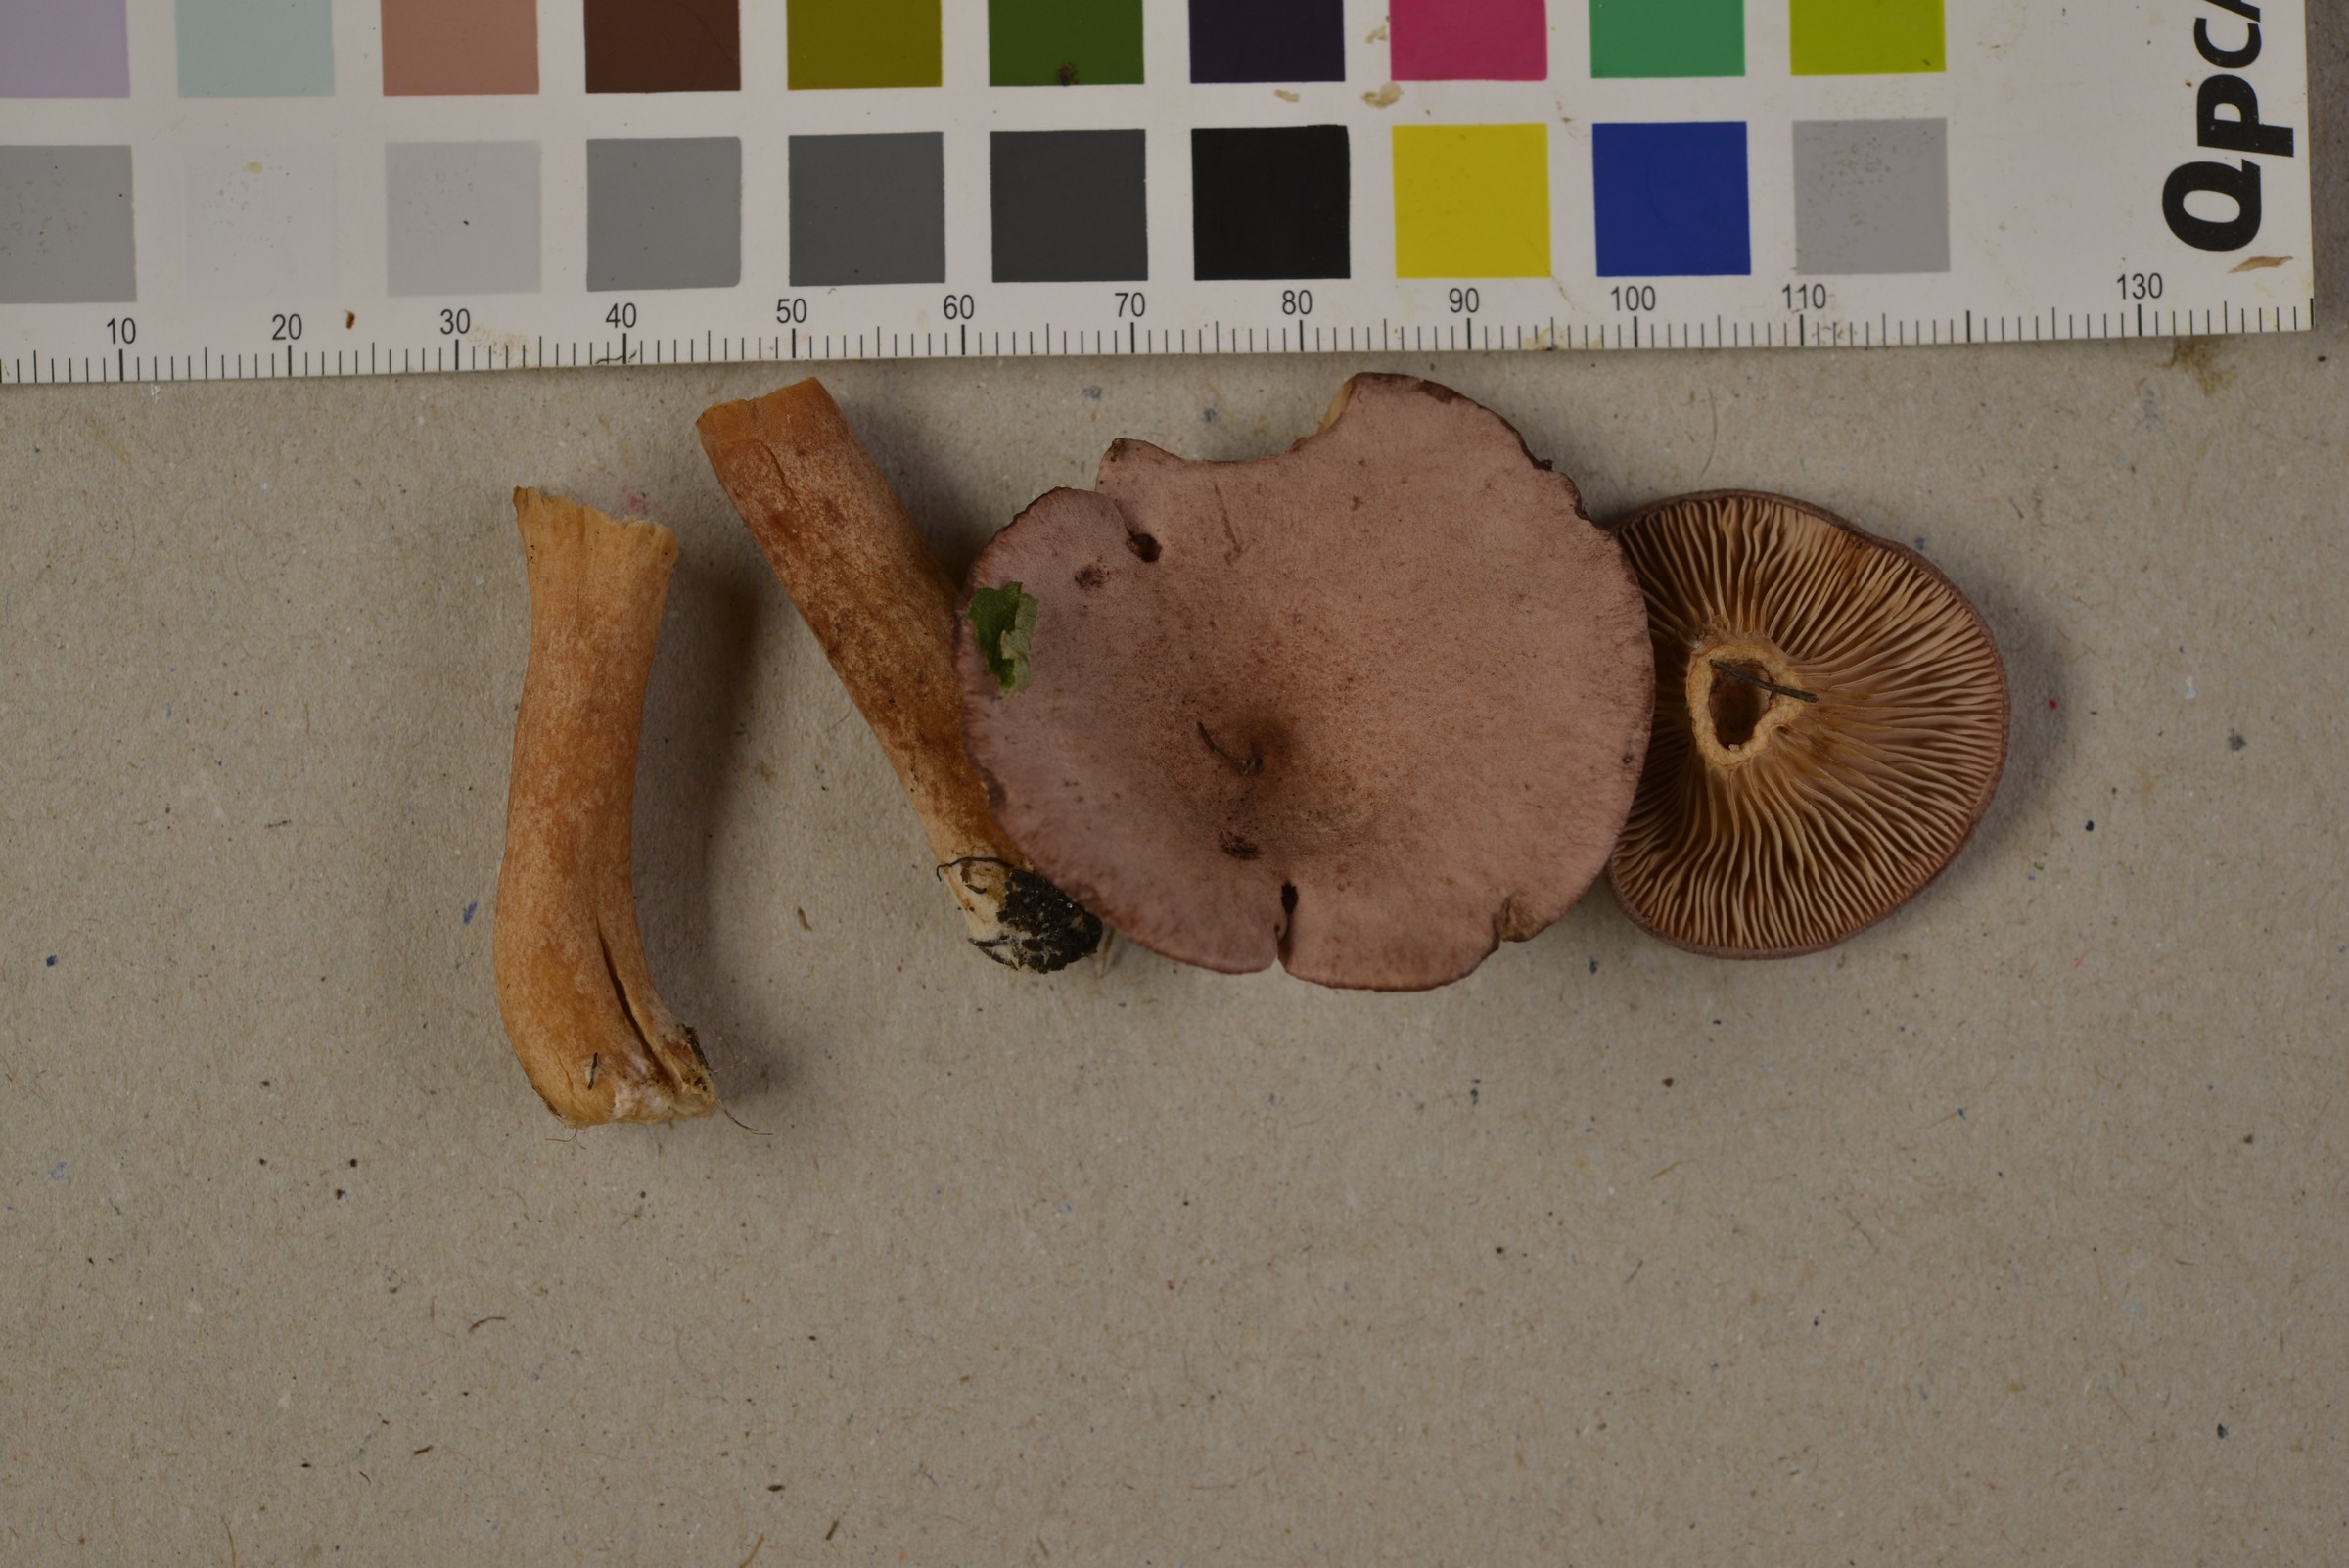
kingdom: Fungi
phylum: Basidiomycota
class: Agaricomycetes
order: Russulales
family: Russulaceae
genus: Lactarius
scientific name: Lactarius lilacinus
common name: Lilac milkcap
